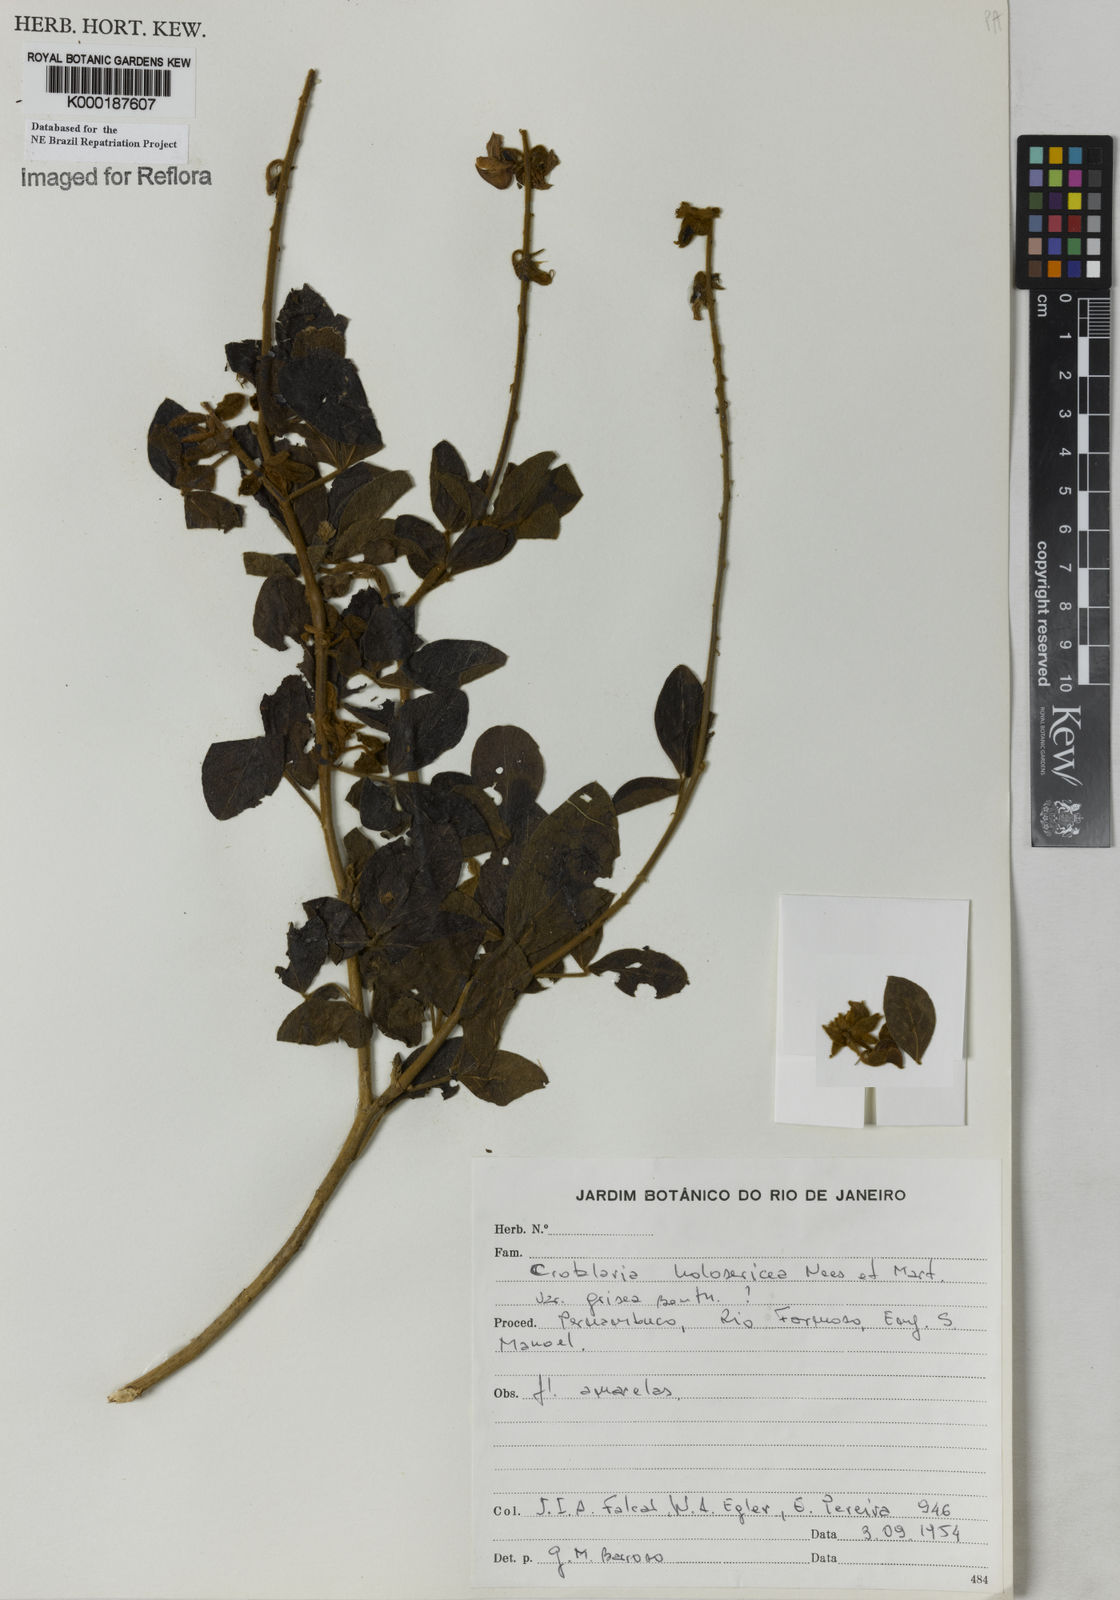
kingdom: Plantae
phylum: Tracheophyta
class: Magnoliopsida
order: Fabales
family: Fabaceae
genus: Crotalaria
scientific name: Crotalaria holosericea
